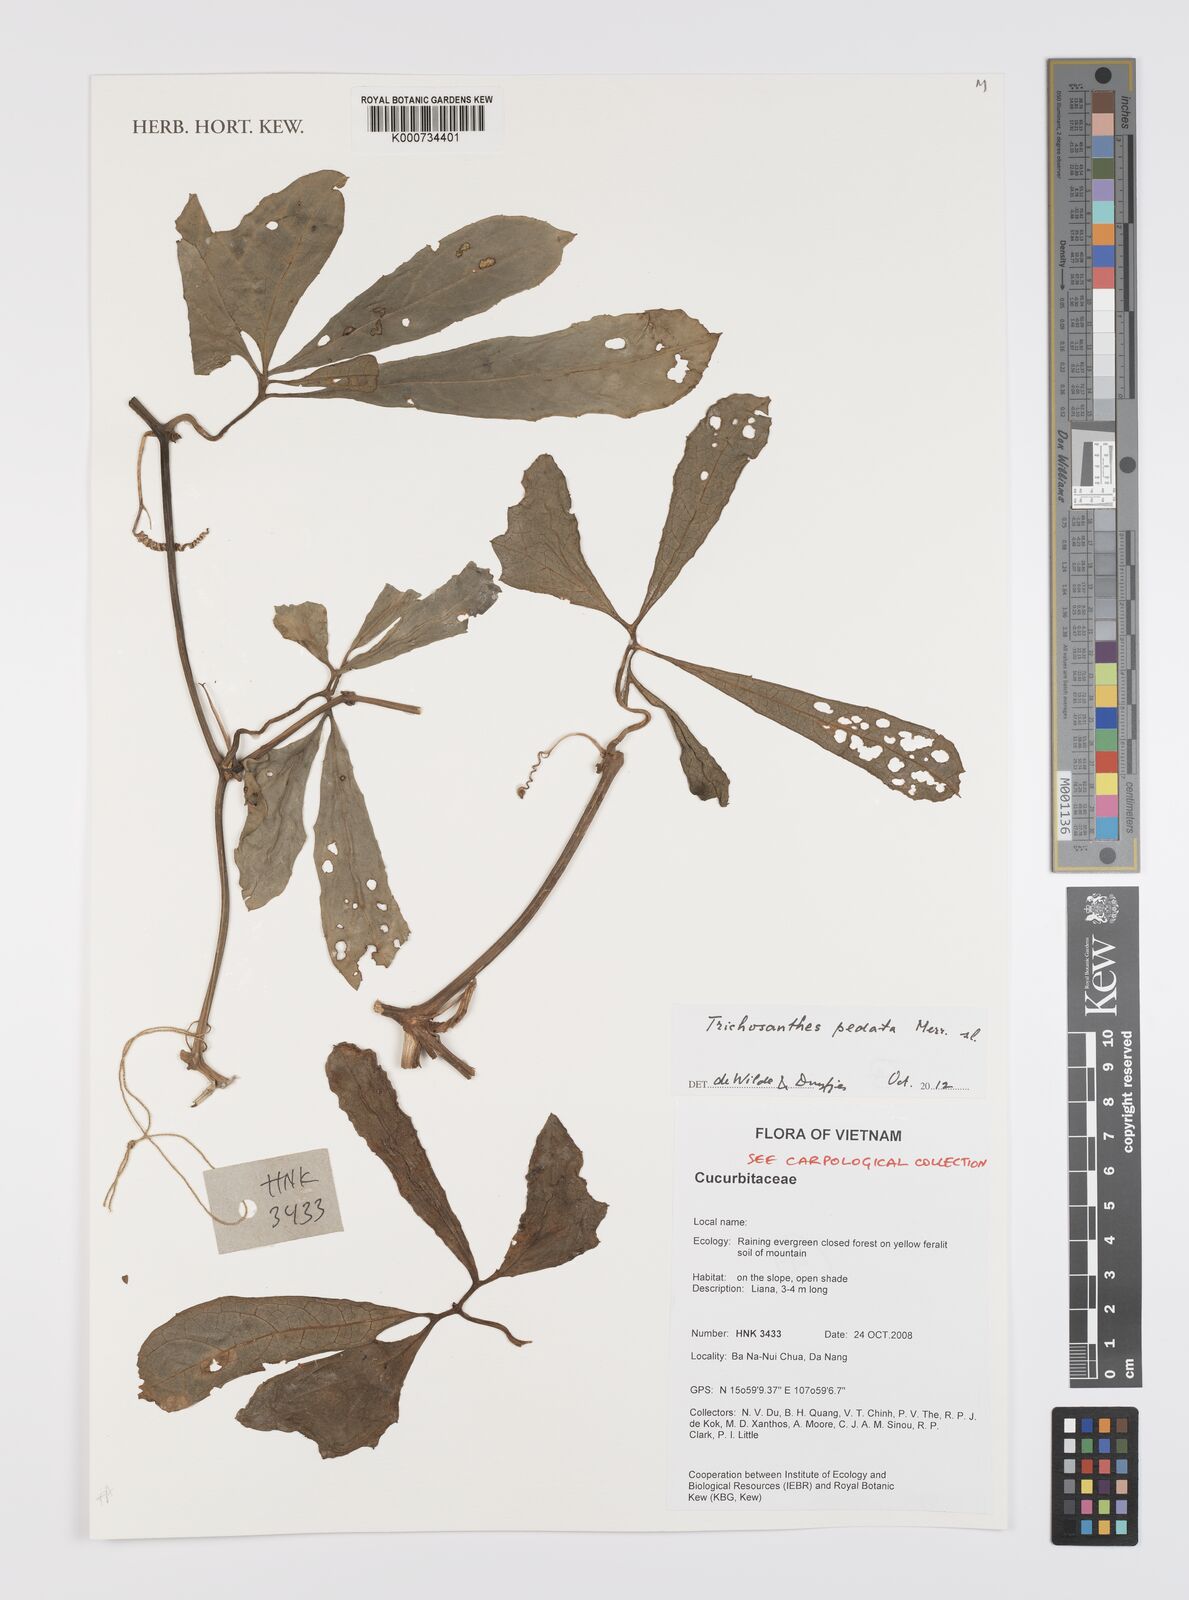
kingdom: Plantae
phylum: Tracheophyta
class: Magnoliopsida
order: Cucurbitales
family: Cucurbitaceae
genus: Trichosanthes
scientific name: Trichosanthes pedata
